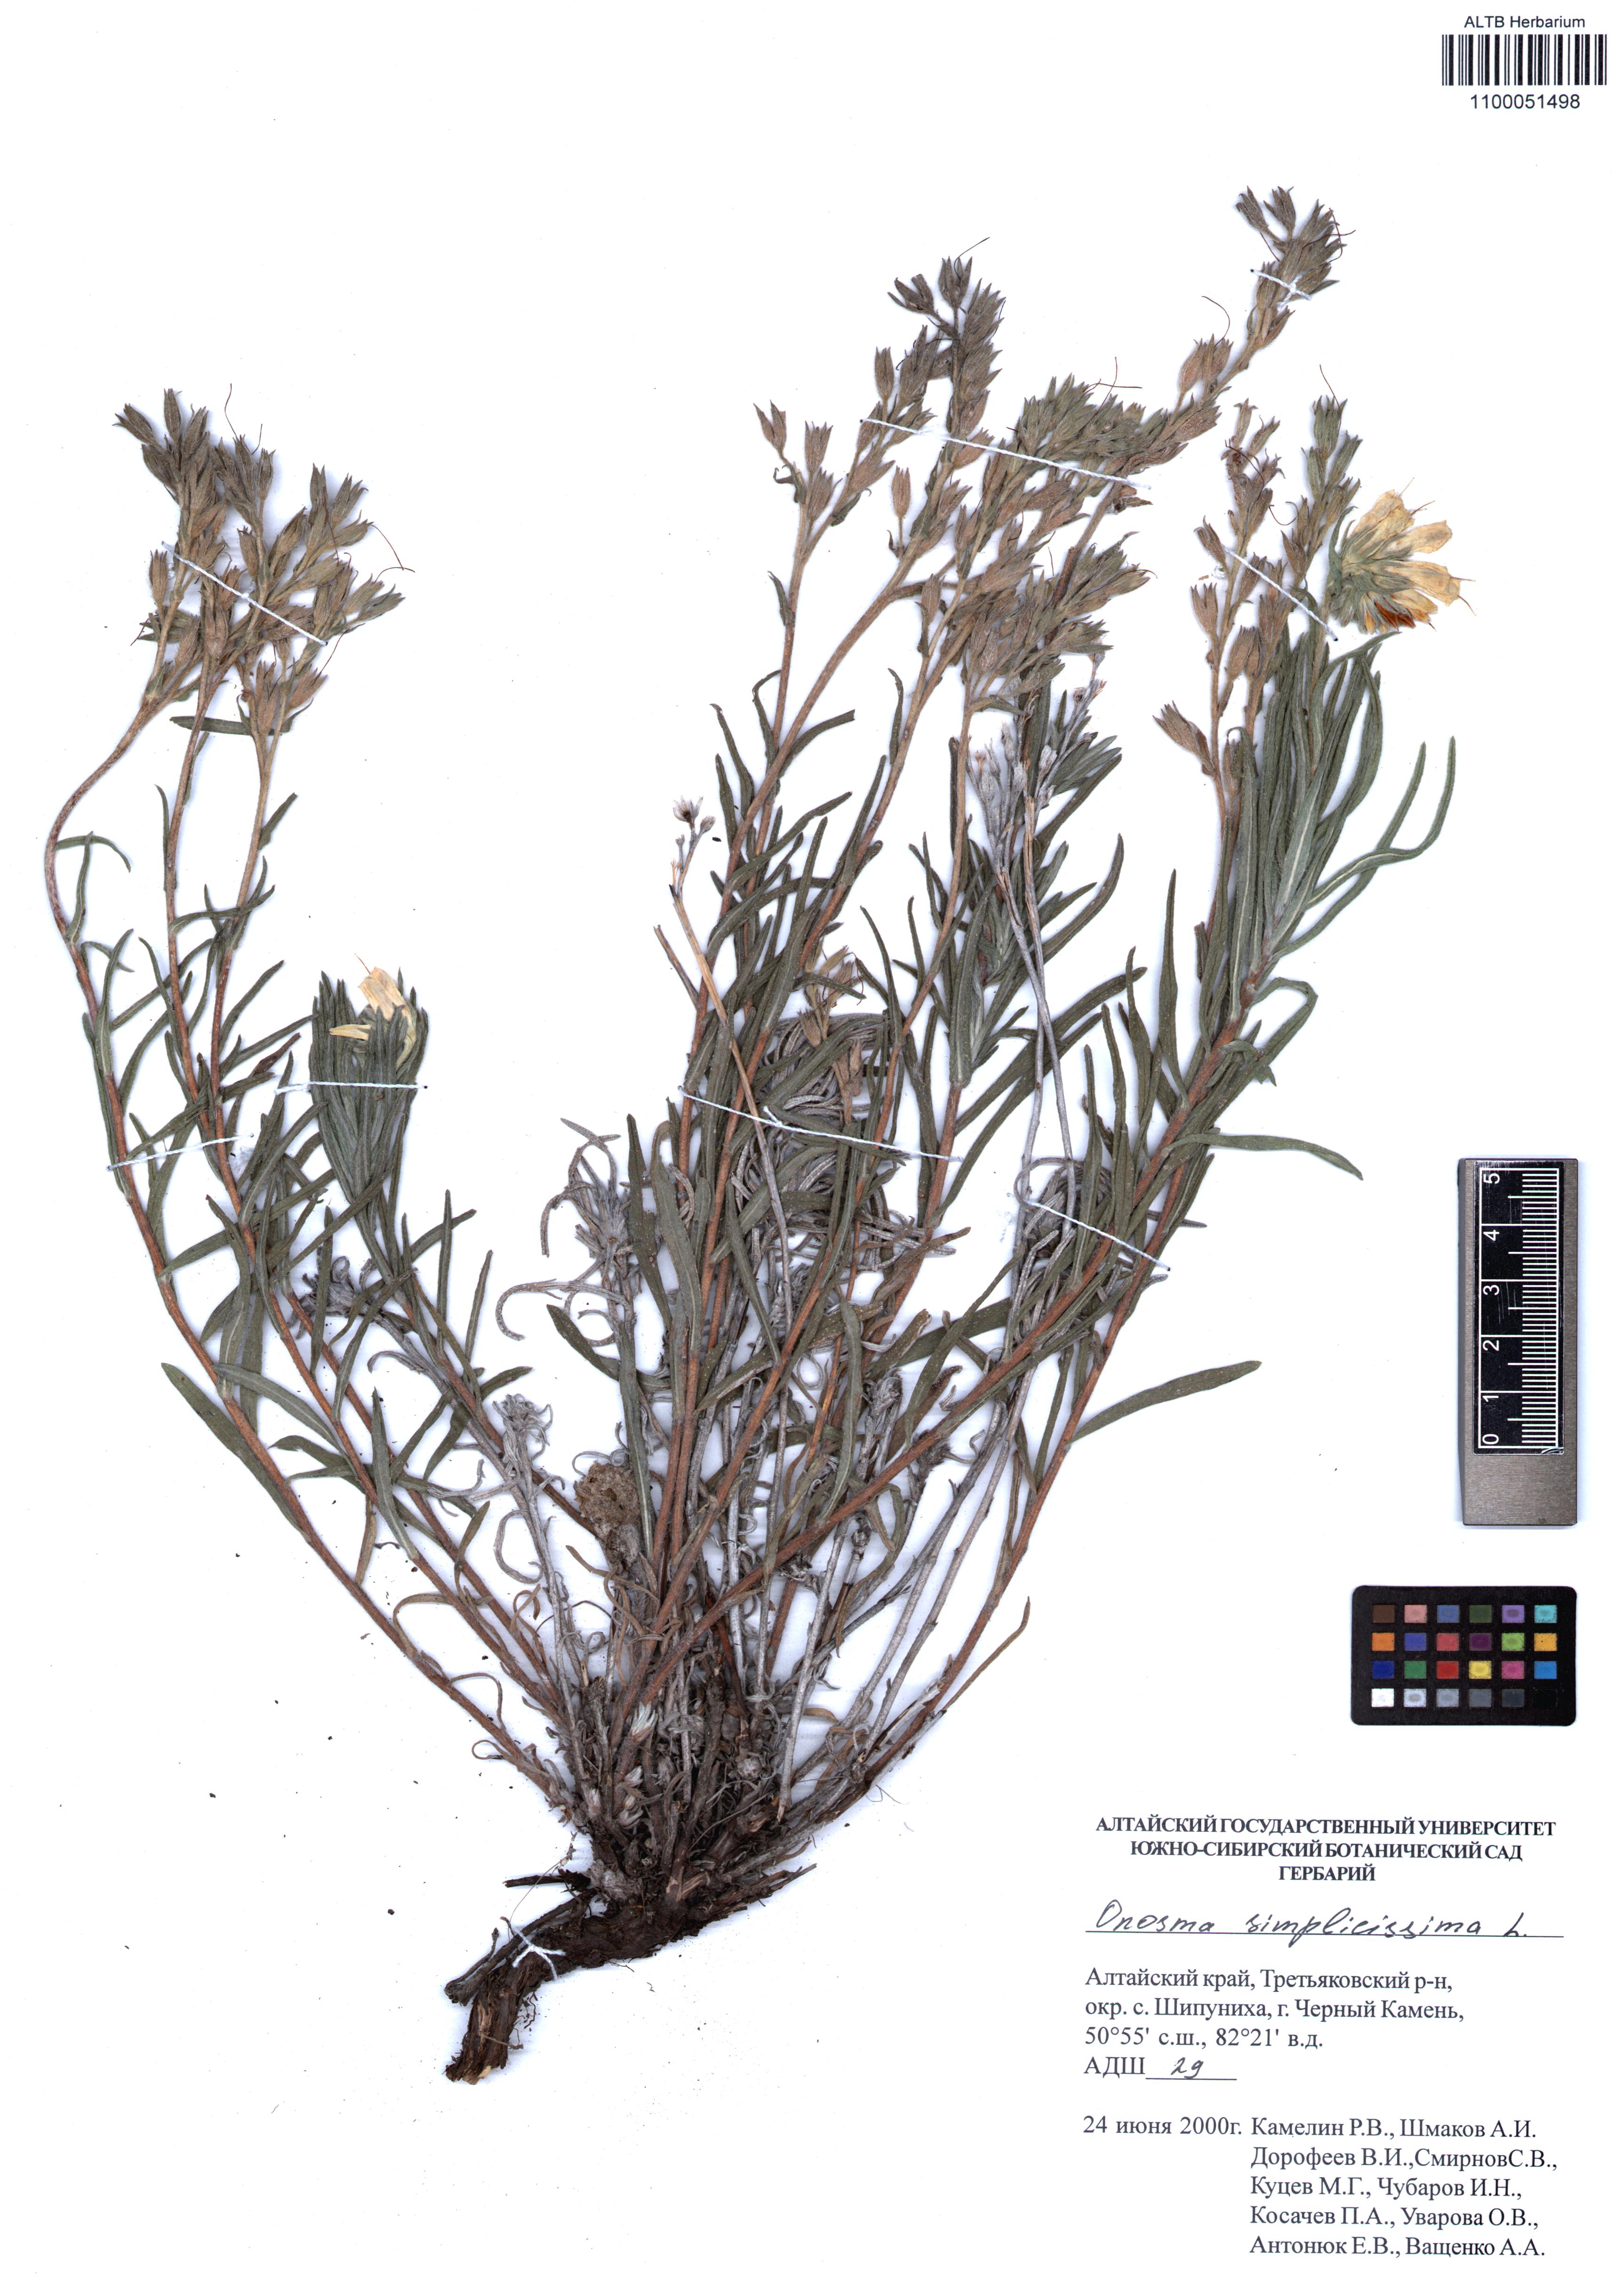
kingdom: Plantae
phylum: Tracheophyta
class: Magnoliopsida
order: Boraginales
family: Boraginaceae
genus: Onosma
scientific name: Onosma simplicissima
